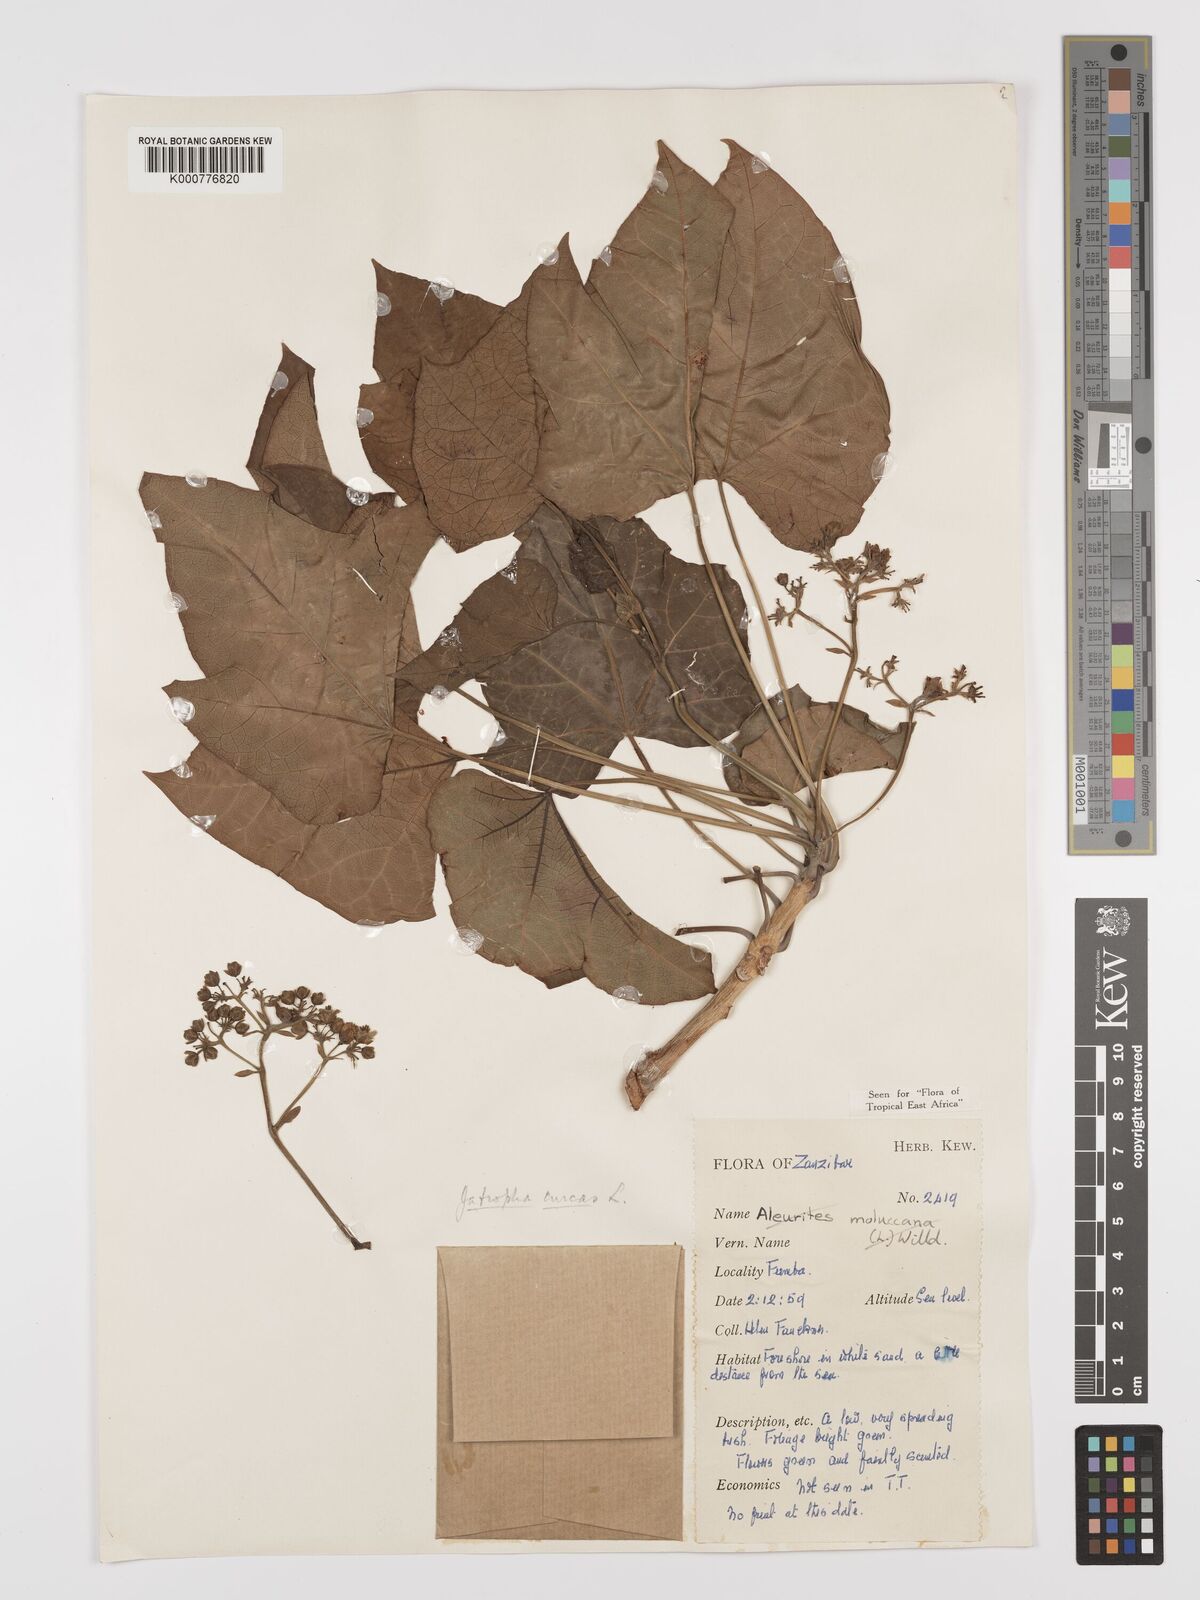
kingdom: Plantae
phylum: Tracheophyta
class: Magnoliopsida
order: Malpighiales
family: Euphorbiaceae
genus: Jatropha
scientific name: Jatropha curcas
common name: Barbados nut
